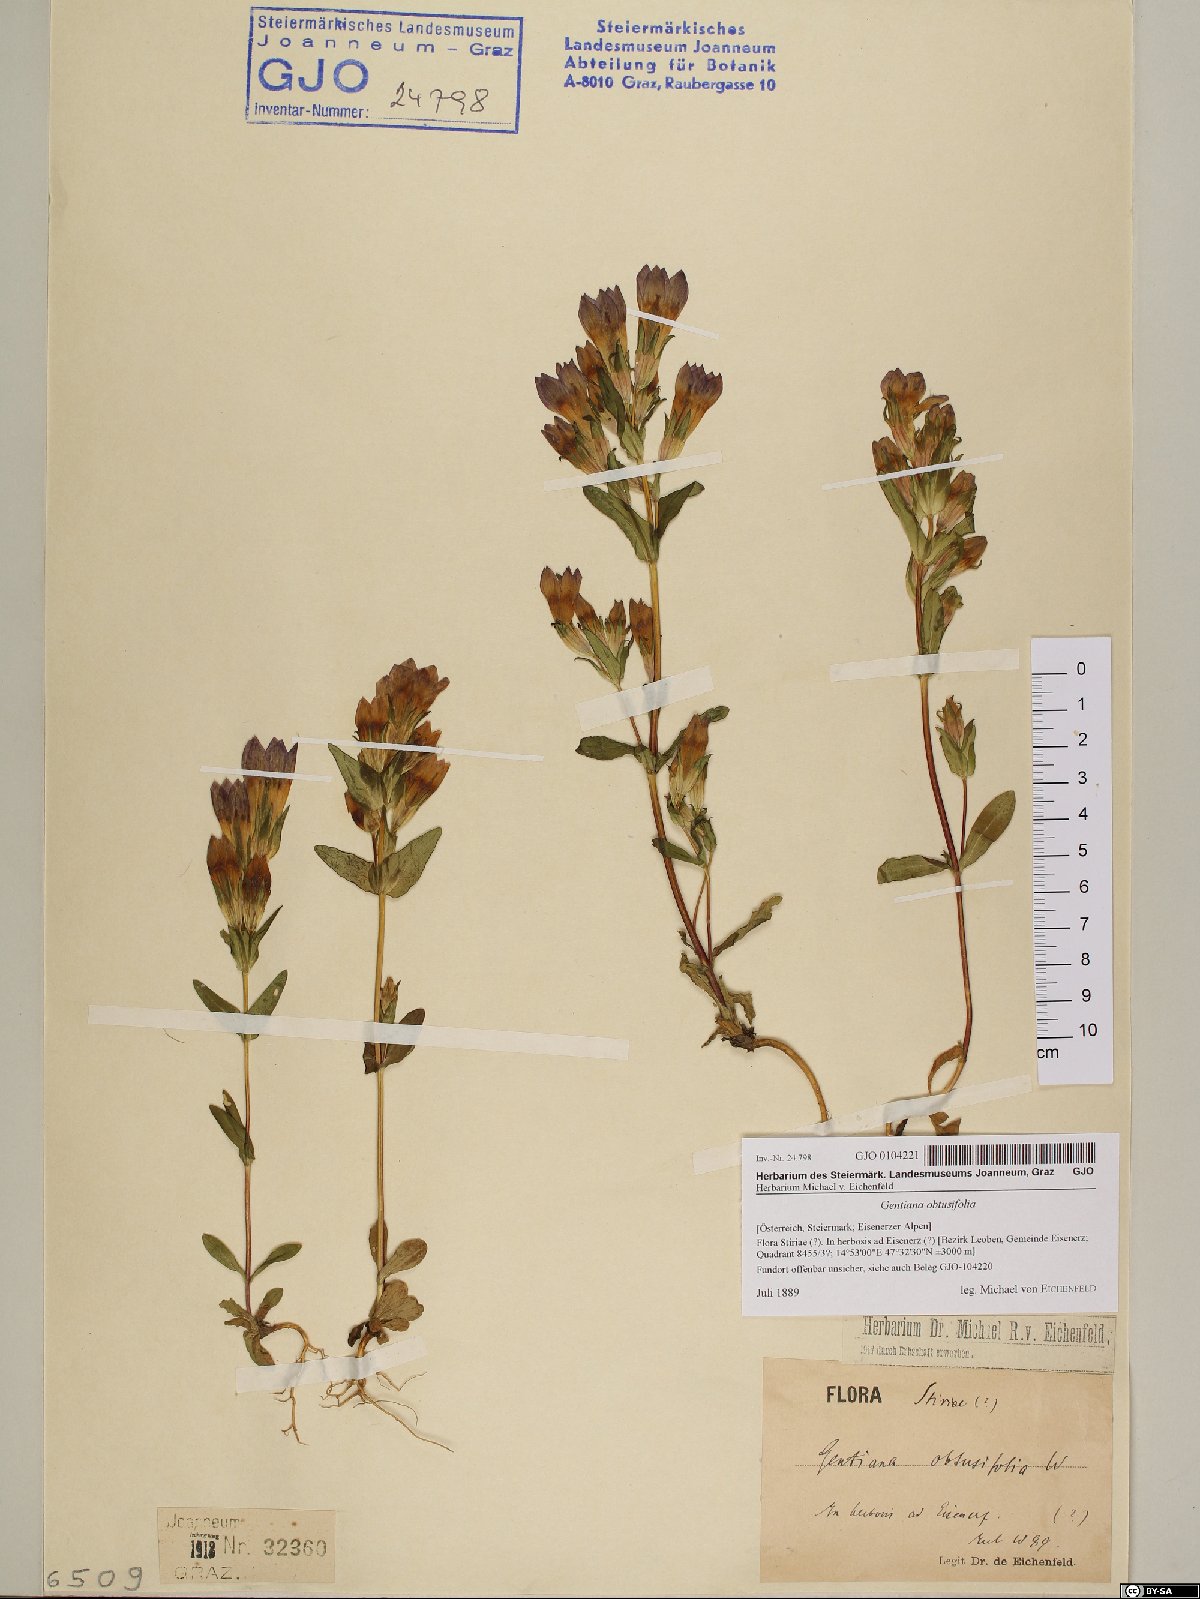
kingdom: Plantae
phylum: Tracheophyta
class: Magnoliopsida
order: Gentianales
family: Gentianaceae
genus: Gentianella
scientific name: Gentianella obtusifolia
